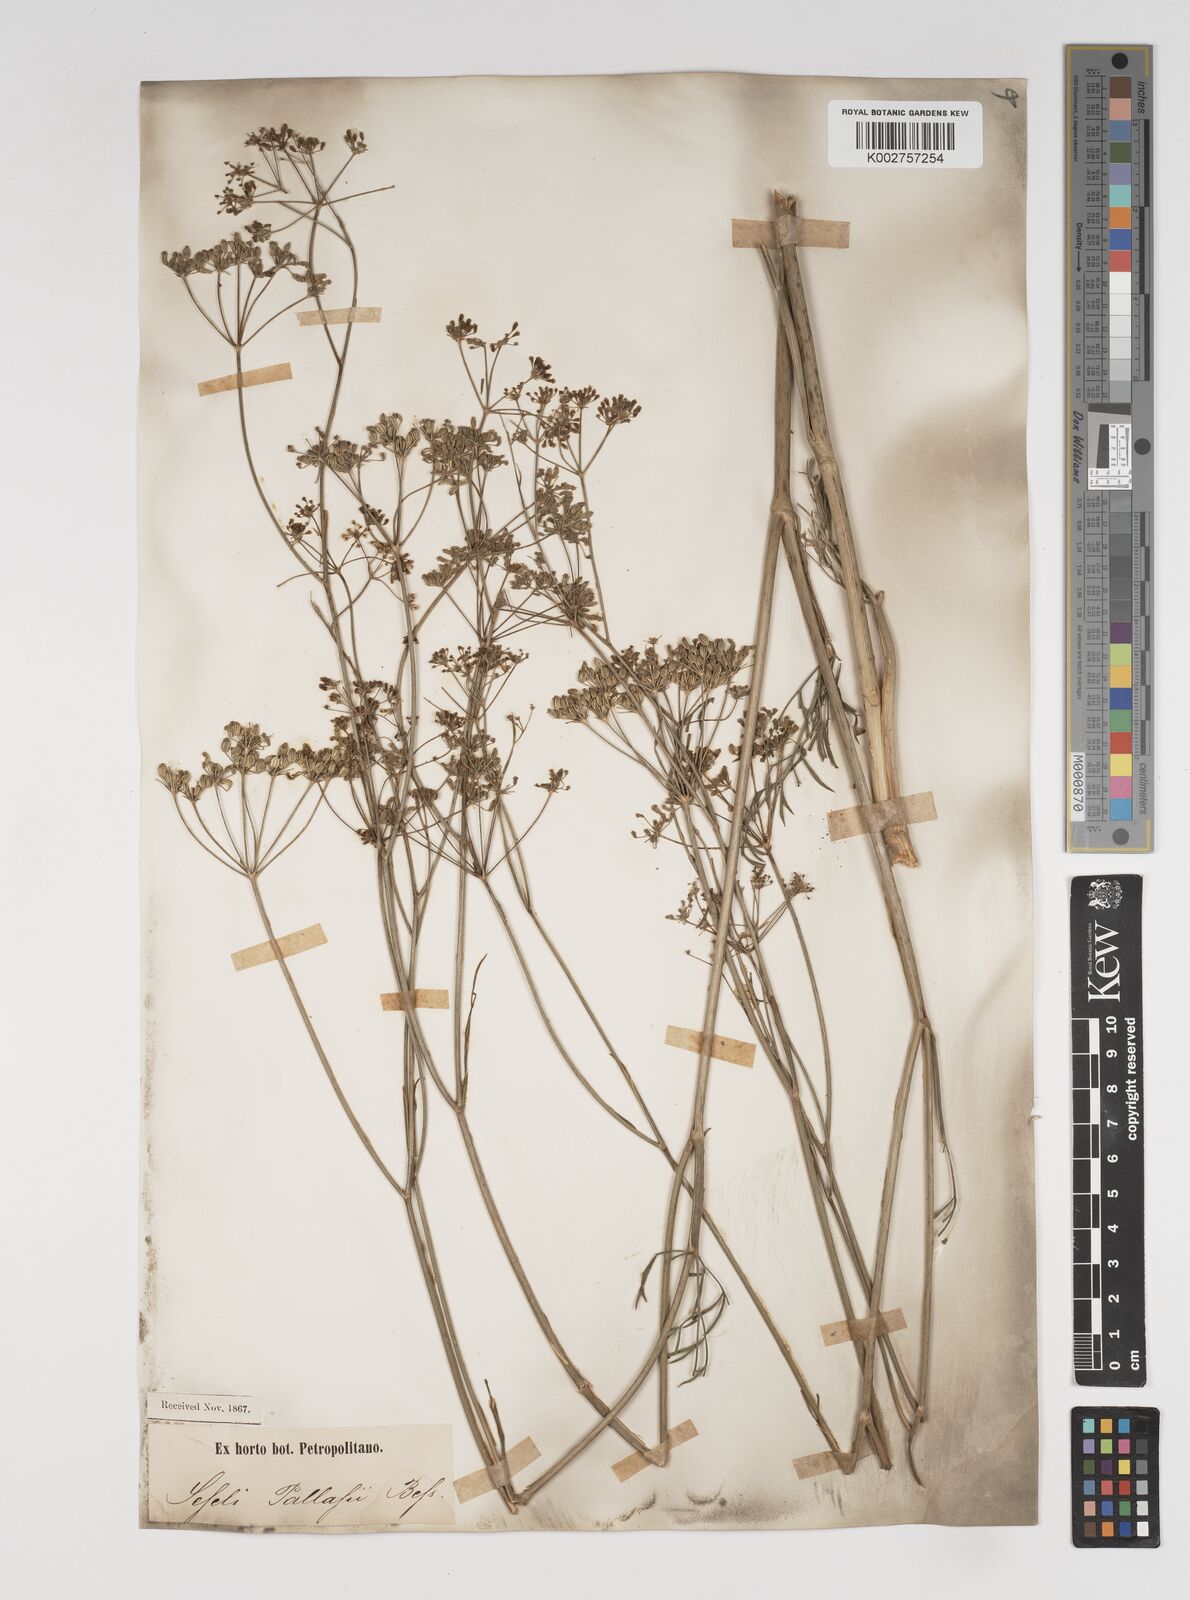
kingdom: Plantae
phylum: Tracheophyta
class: Magnoliopsida
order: Apiales
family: Apiaceae
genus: Seseli
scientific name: Seseli pallasii
